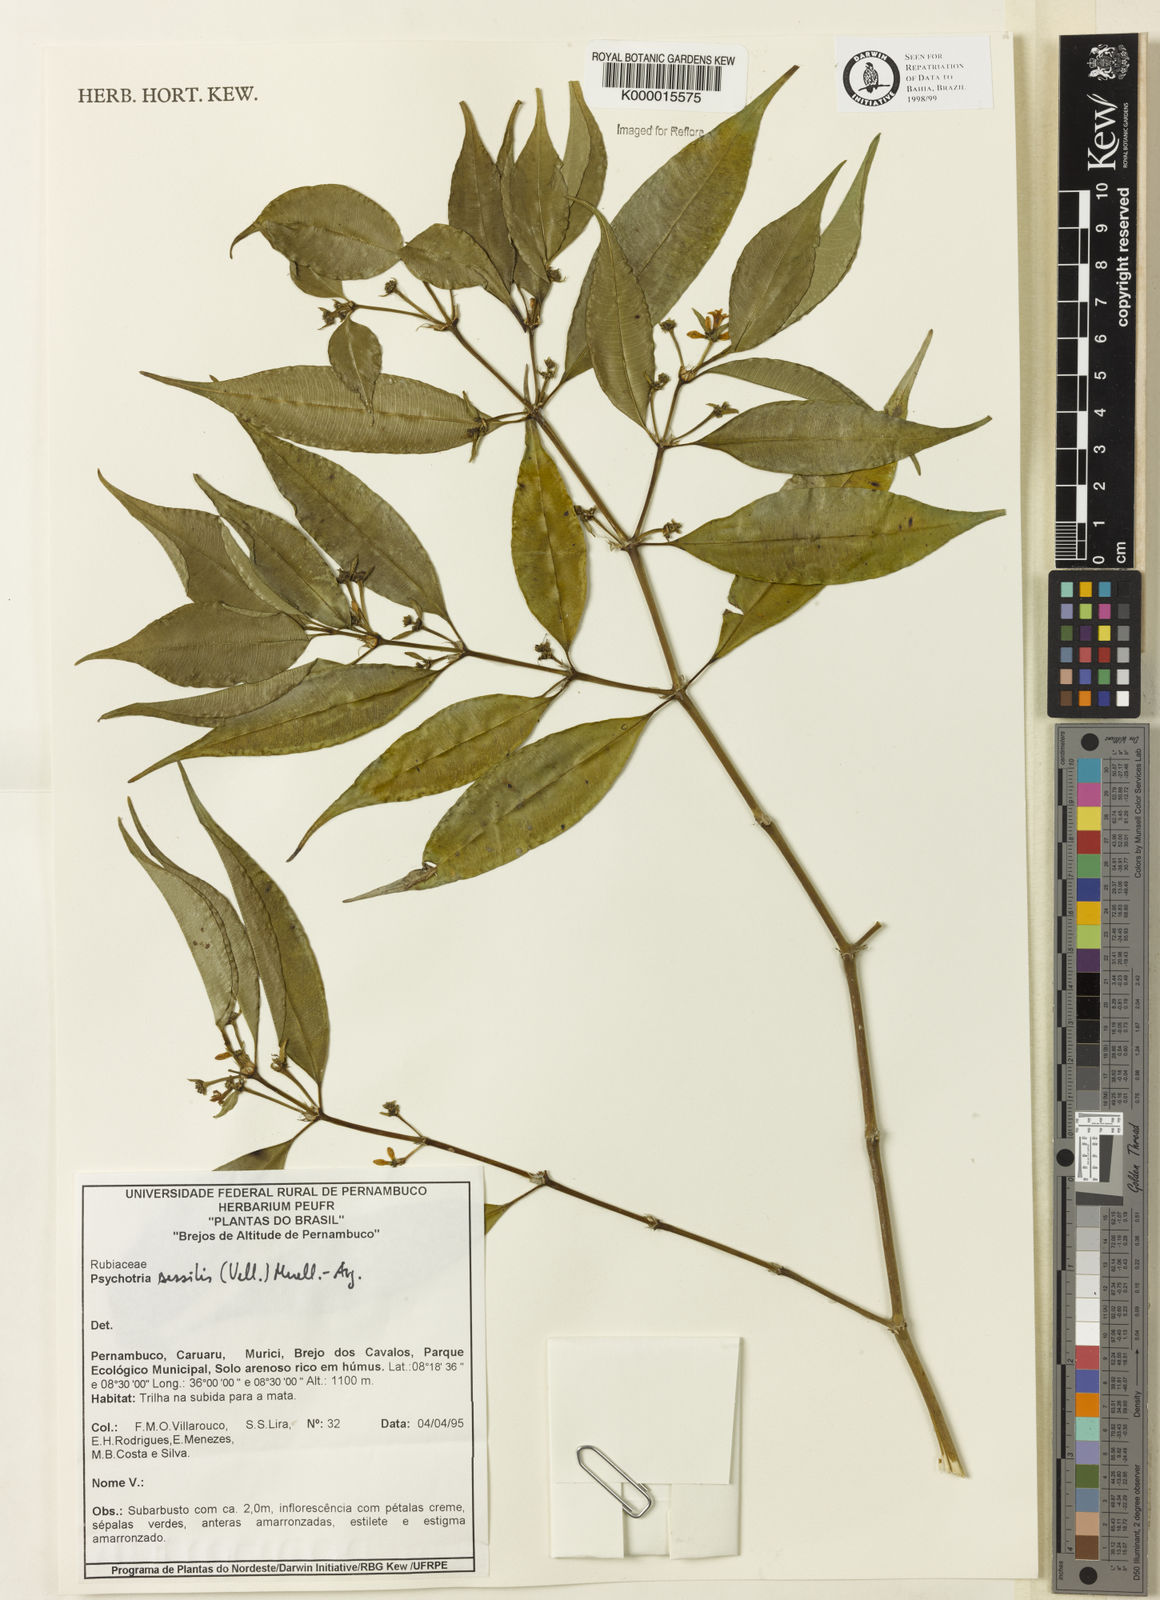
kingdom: Plantae
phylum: Tracheophyta
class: Magnoliopsida
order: Gentianales
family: Rubiaceae
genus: Psychotria
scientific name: Psychotria
